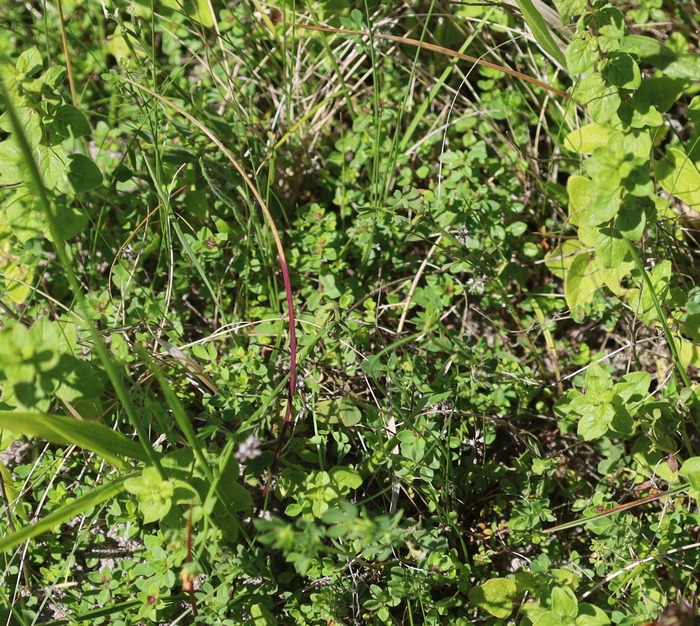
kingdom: Plantae
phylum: Tracheophyta
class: Magnoliopsida
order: Lamiales
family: Lamiaceae
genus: Thymus
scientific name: Thymus pulegioides
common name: Bredbladet timian
